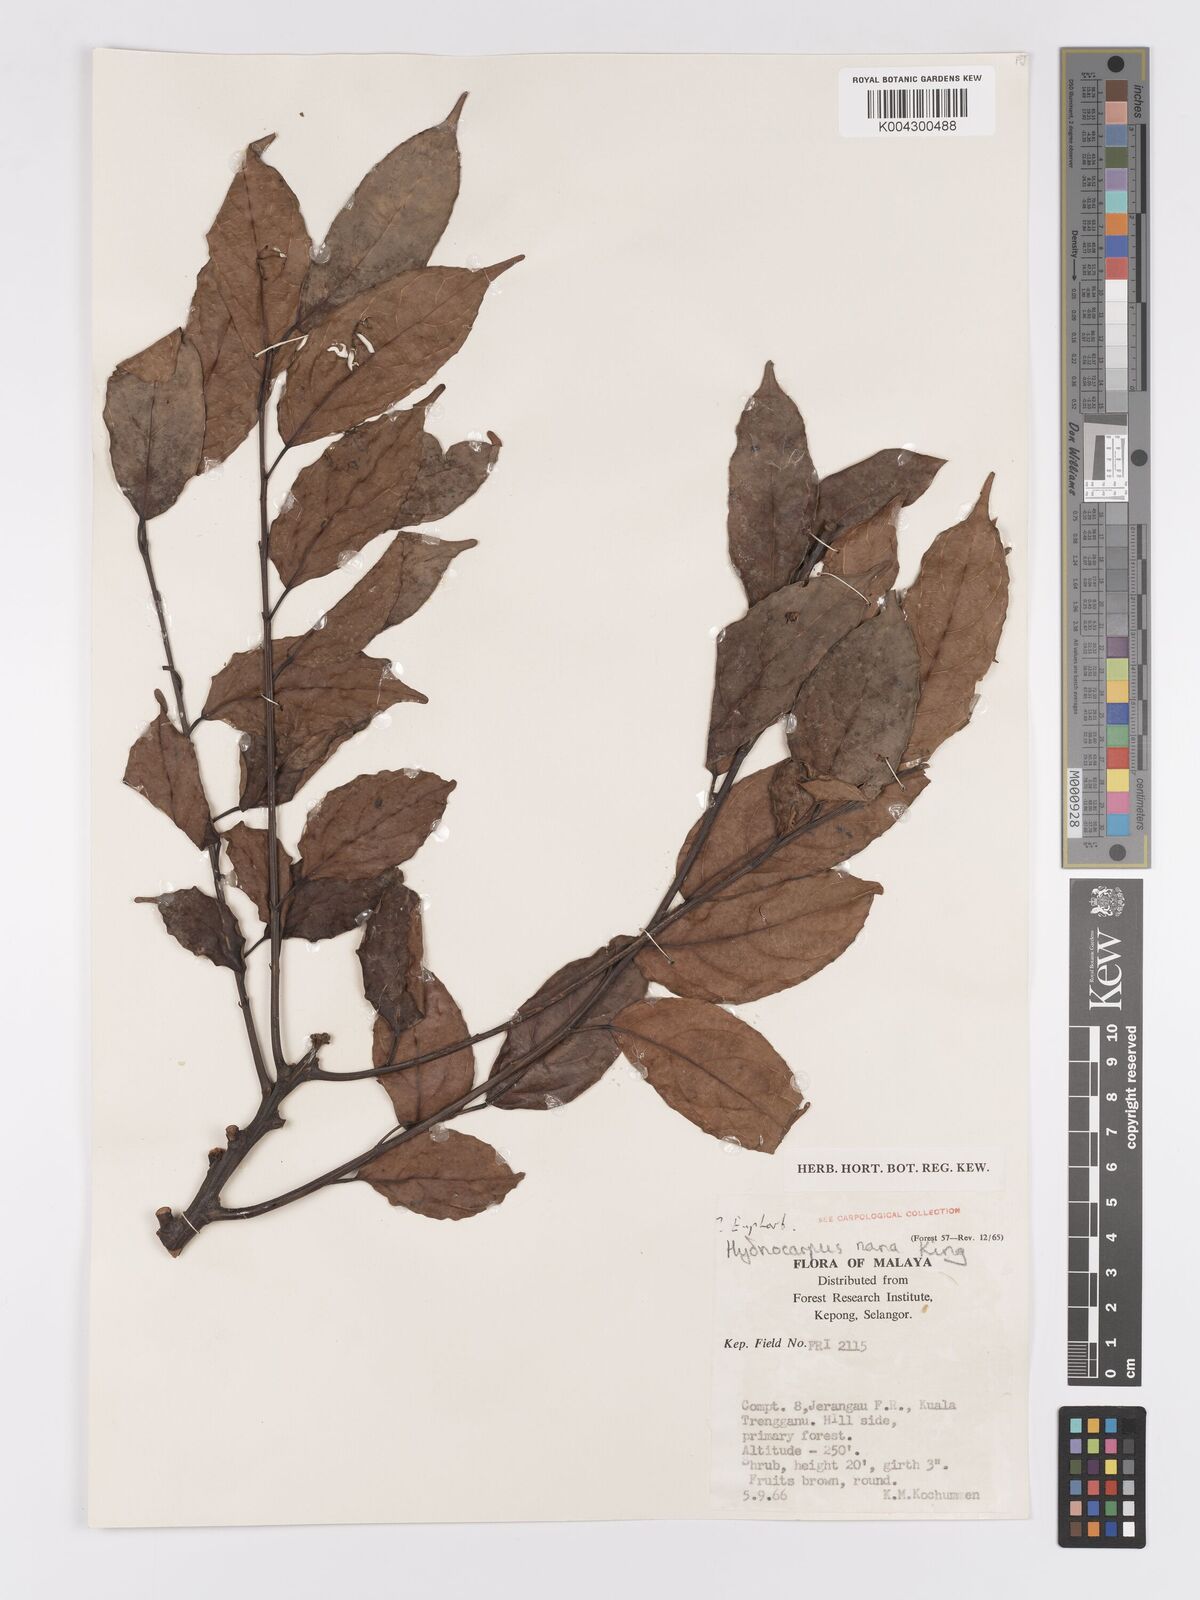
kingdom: Plantae
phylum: Tracheophyta
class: Magnoliopsida
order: Malpighiales
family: Achariaceae
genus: Hydnocarpus
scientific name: Hydnocarpus nanus
